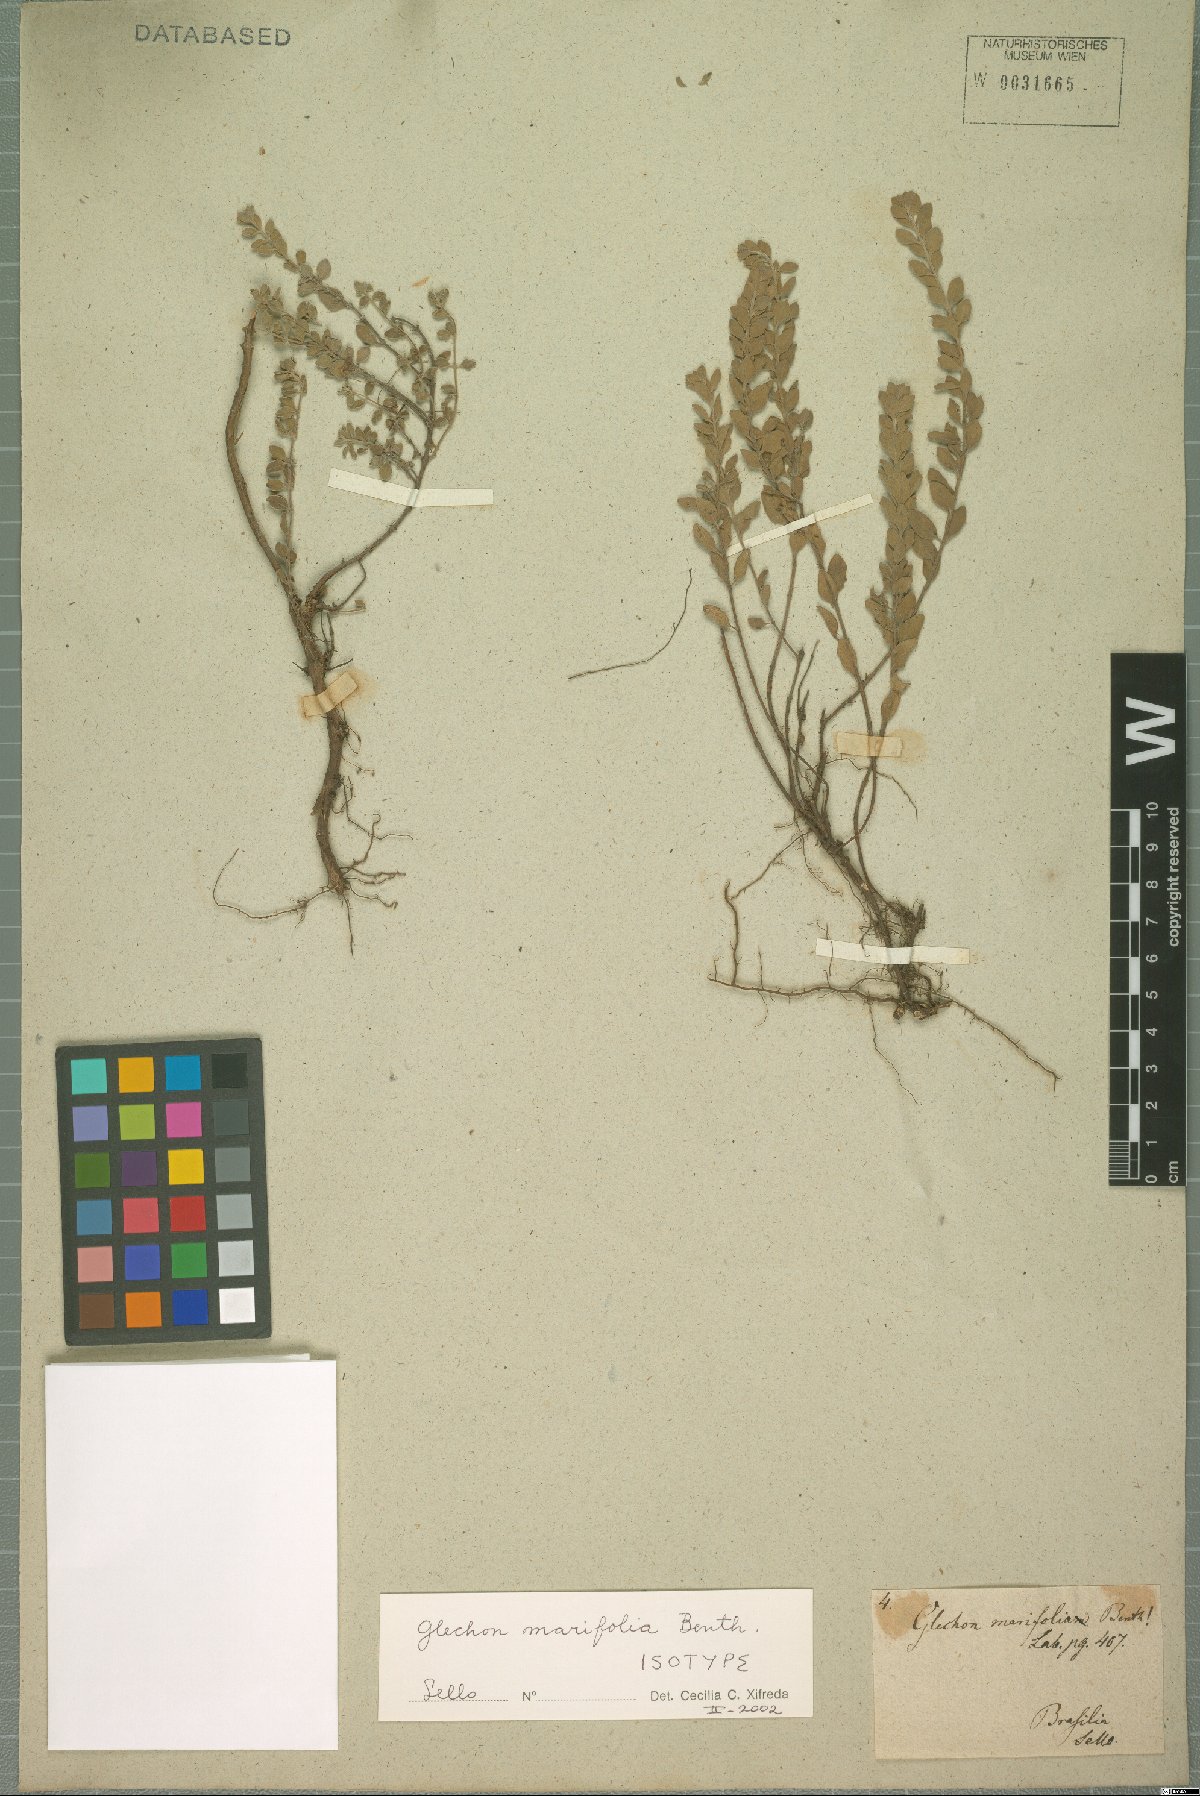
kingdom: Plantae
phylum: Tracheophyta
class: Magnoliopsida
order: Lamiales
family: Lamiaceae
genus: Glechon
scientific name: Glechon marifolia
